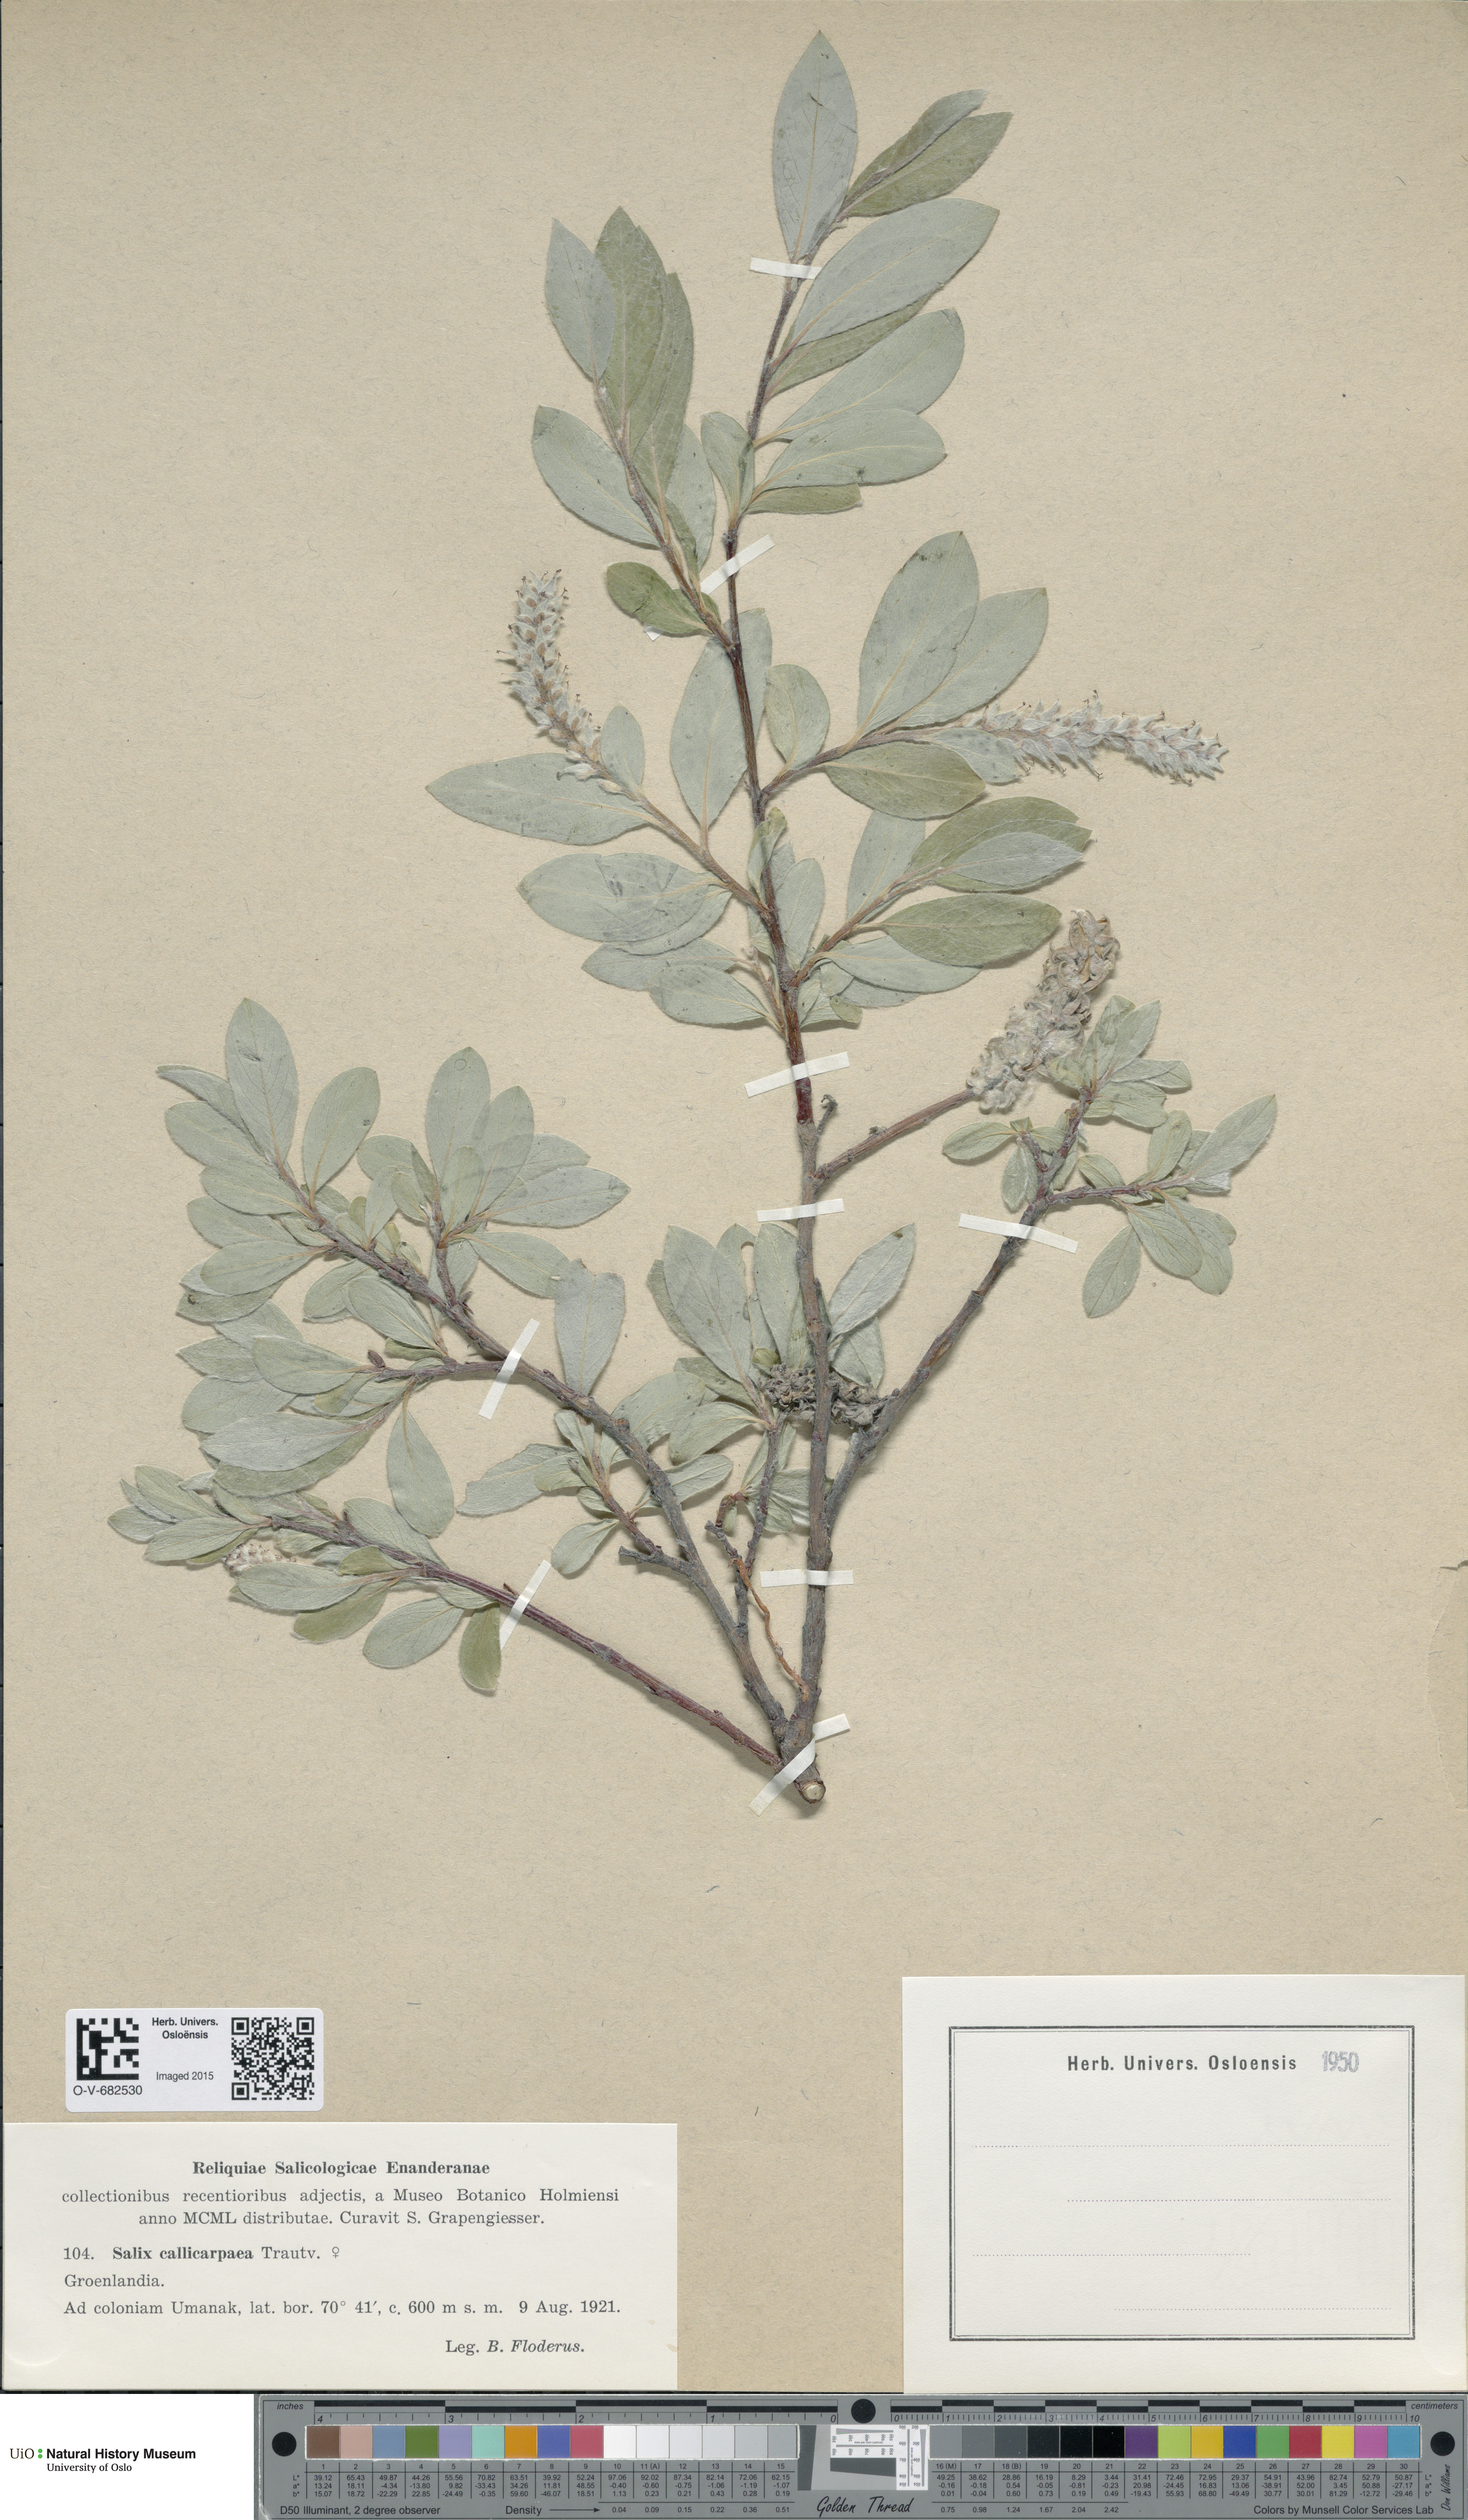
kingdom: Plantae
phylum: Tracheophyta
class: Magnoliopsida
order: Malpighiales
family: Salicaceae
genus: Salix
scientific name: Salix glauca
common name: Glaucous willow
